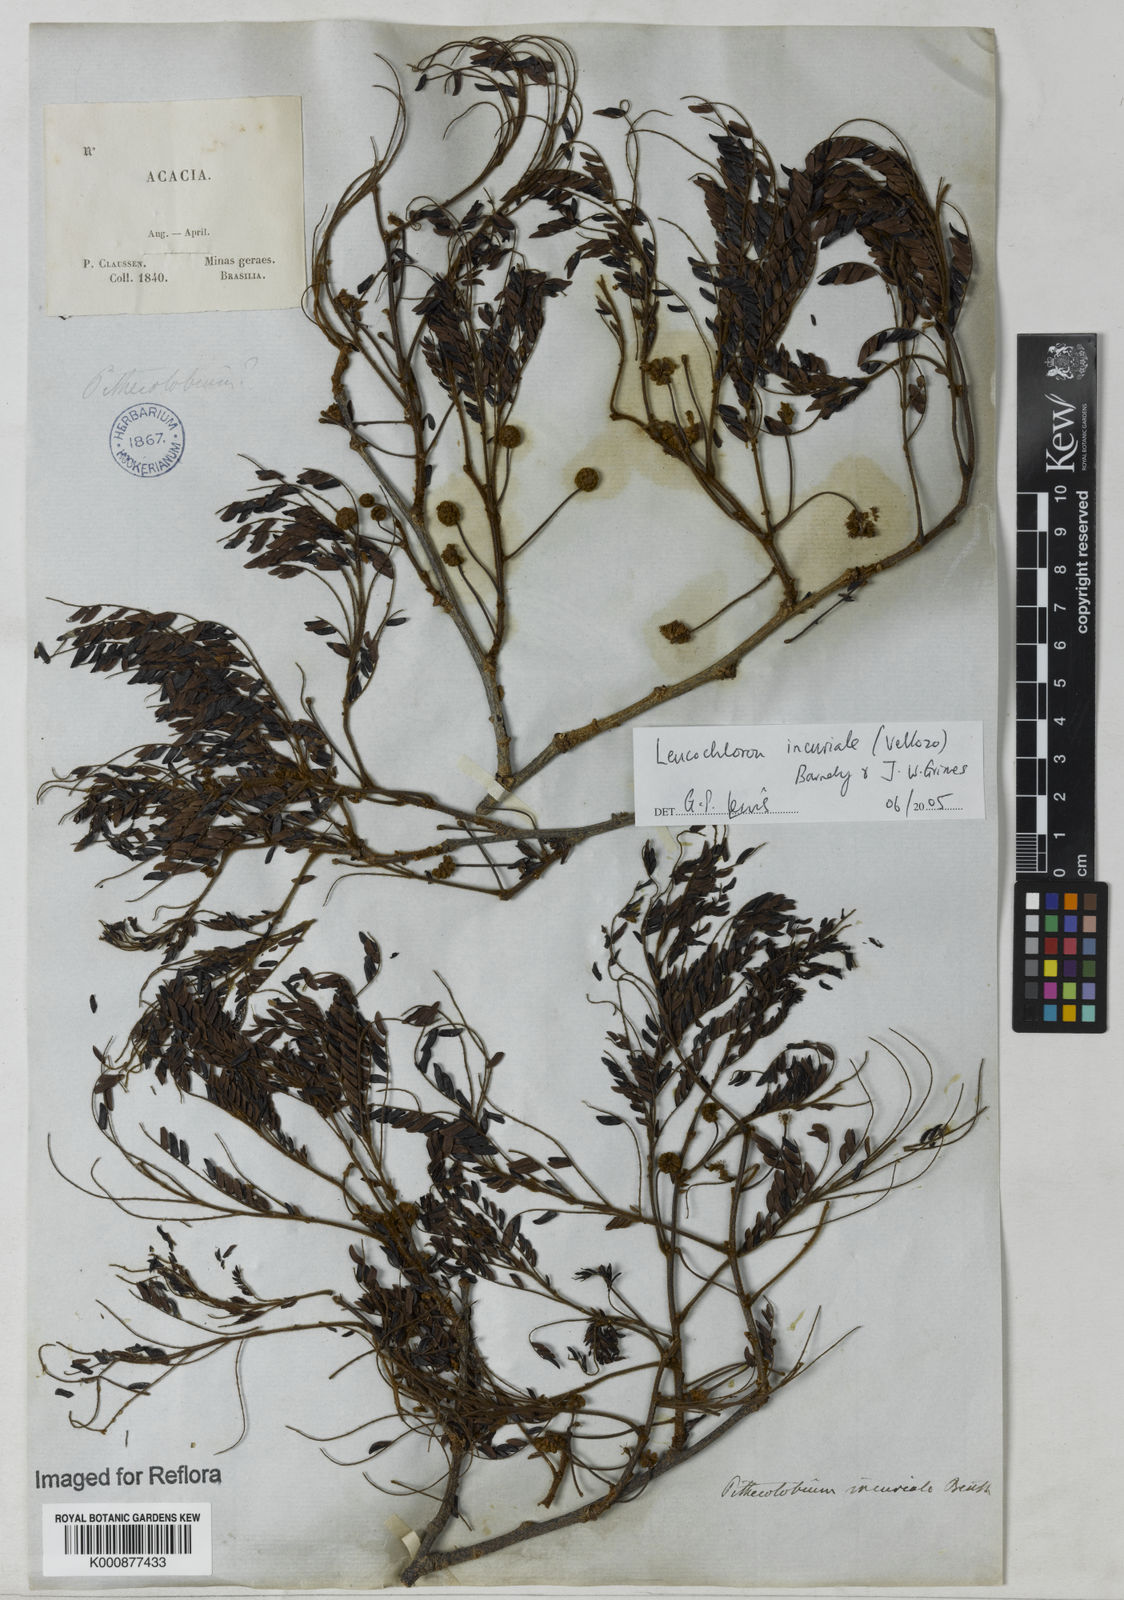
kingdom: Plantae
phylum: Tracheophyta
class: Magnoliopsida
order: Fabales
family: Fabaceae
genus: Leucochloron
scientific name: Leucochloron incuriale
